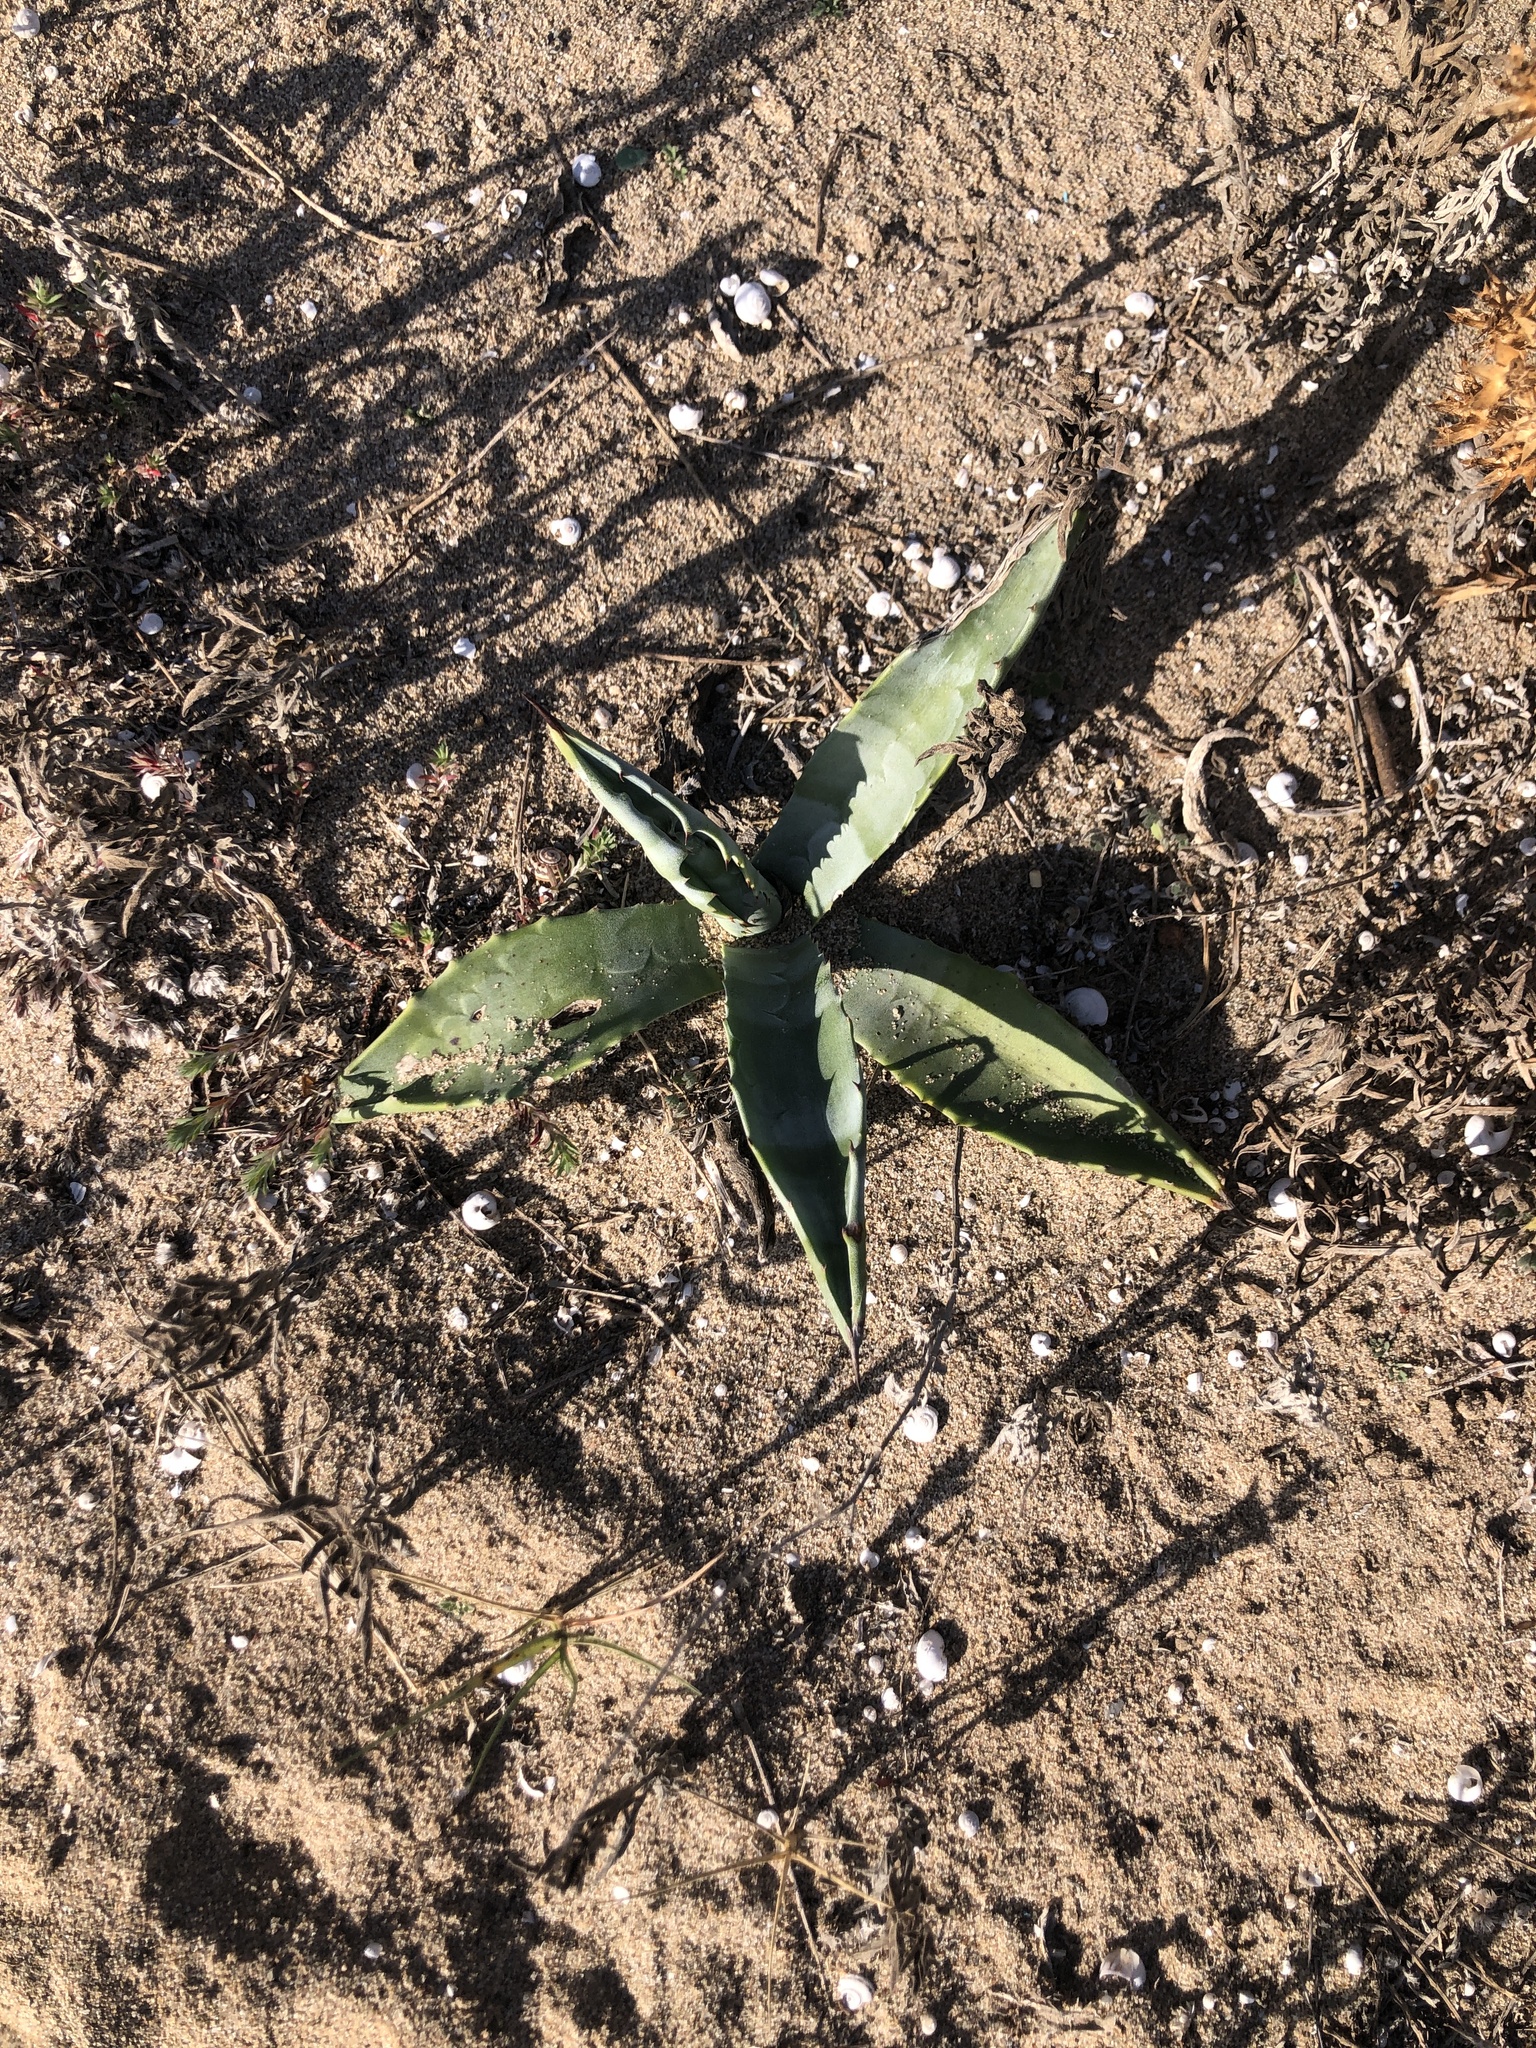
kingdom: Plantae
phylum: Tracheophyta
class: Liliopsida
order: Asparagales
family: Asparagaceae
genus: Agave
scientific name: Agave americana
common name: Centuryplant
